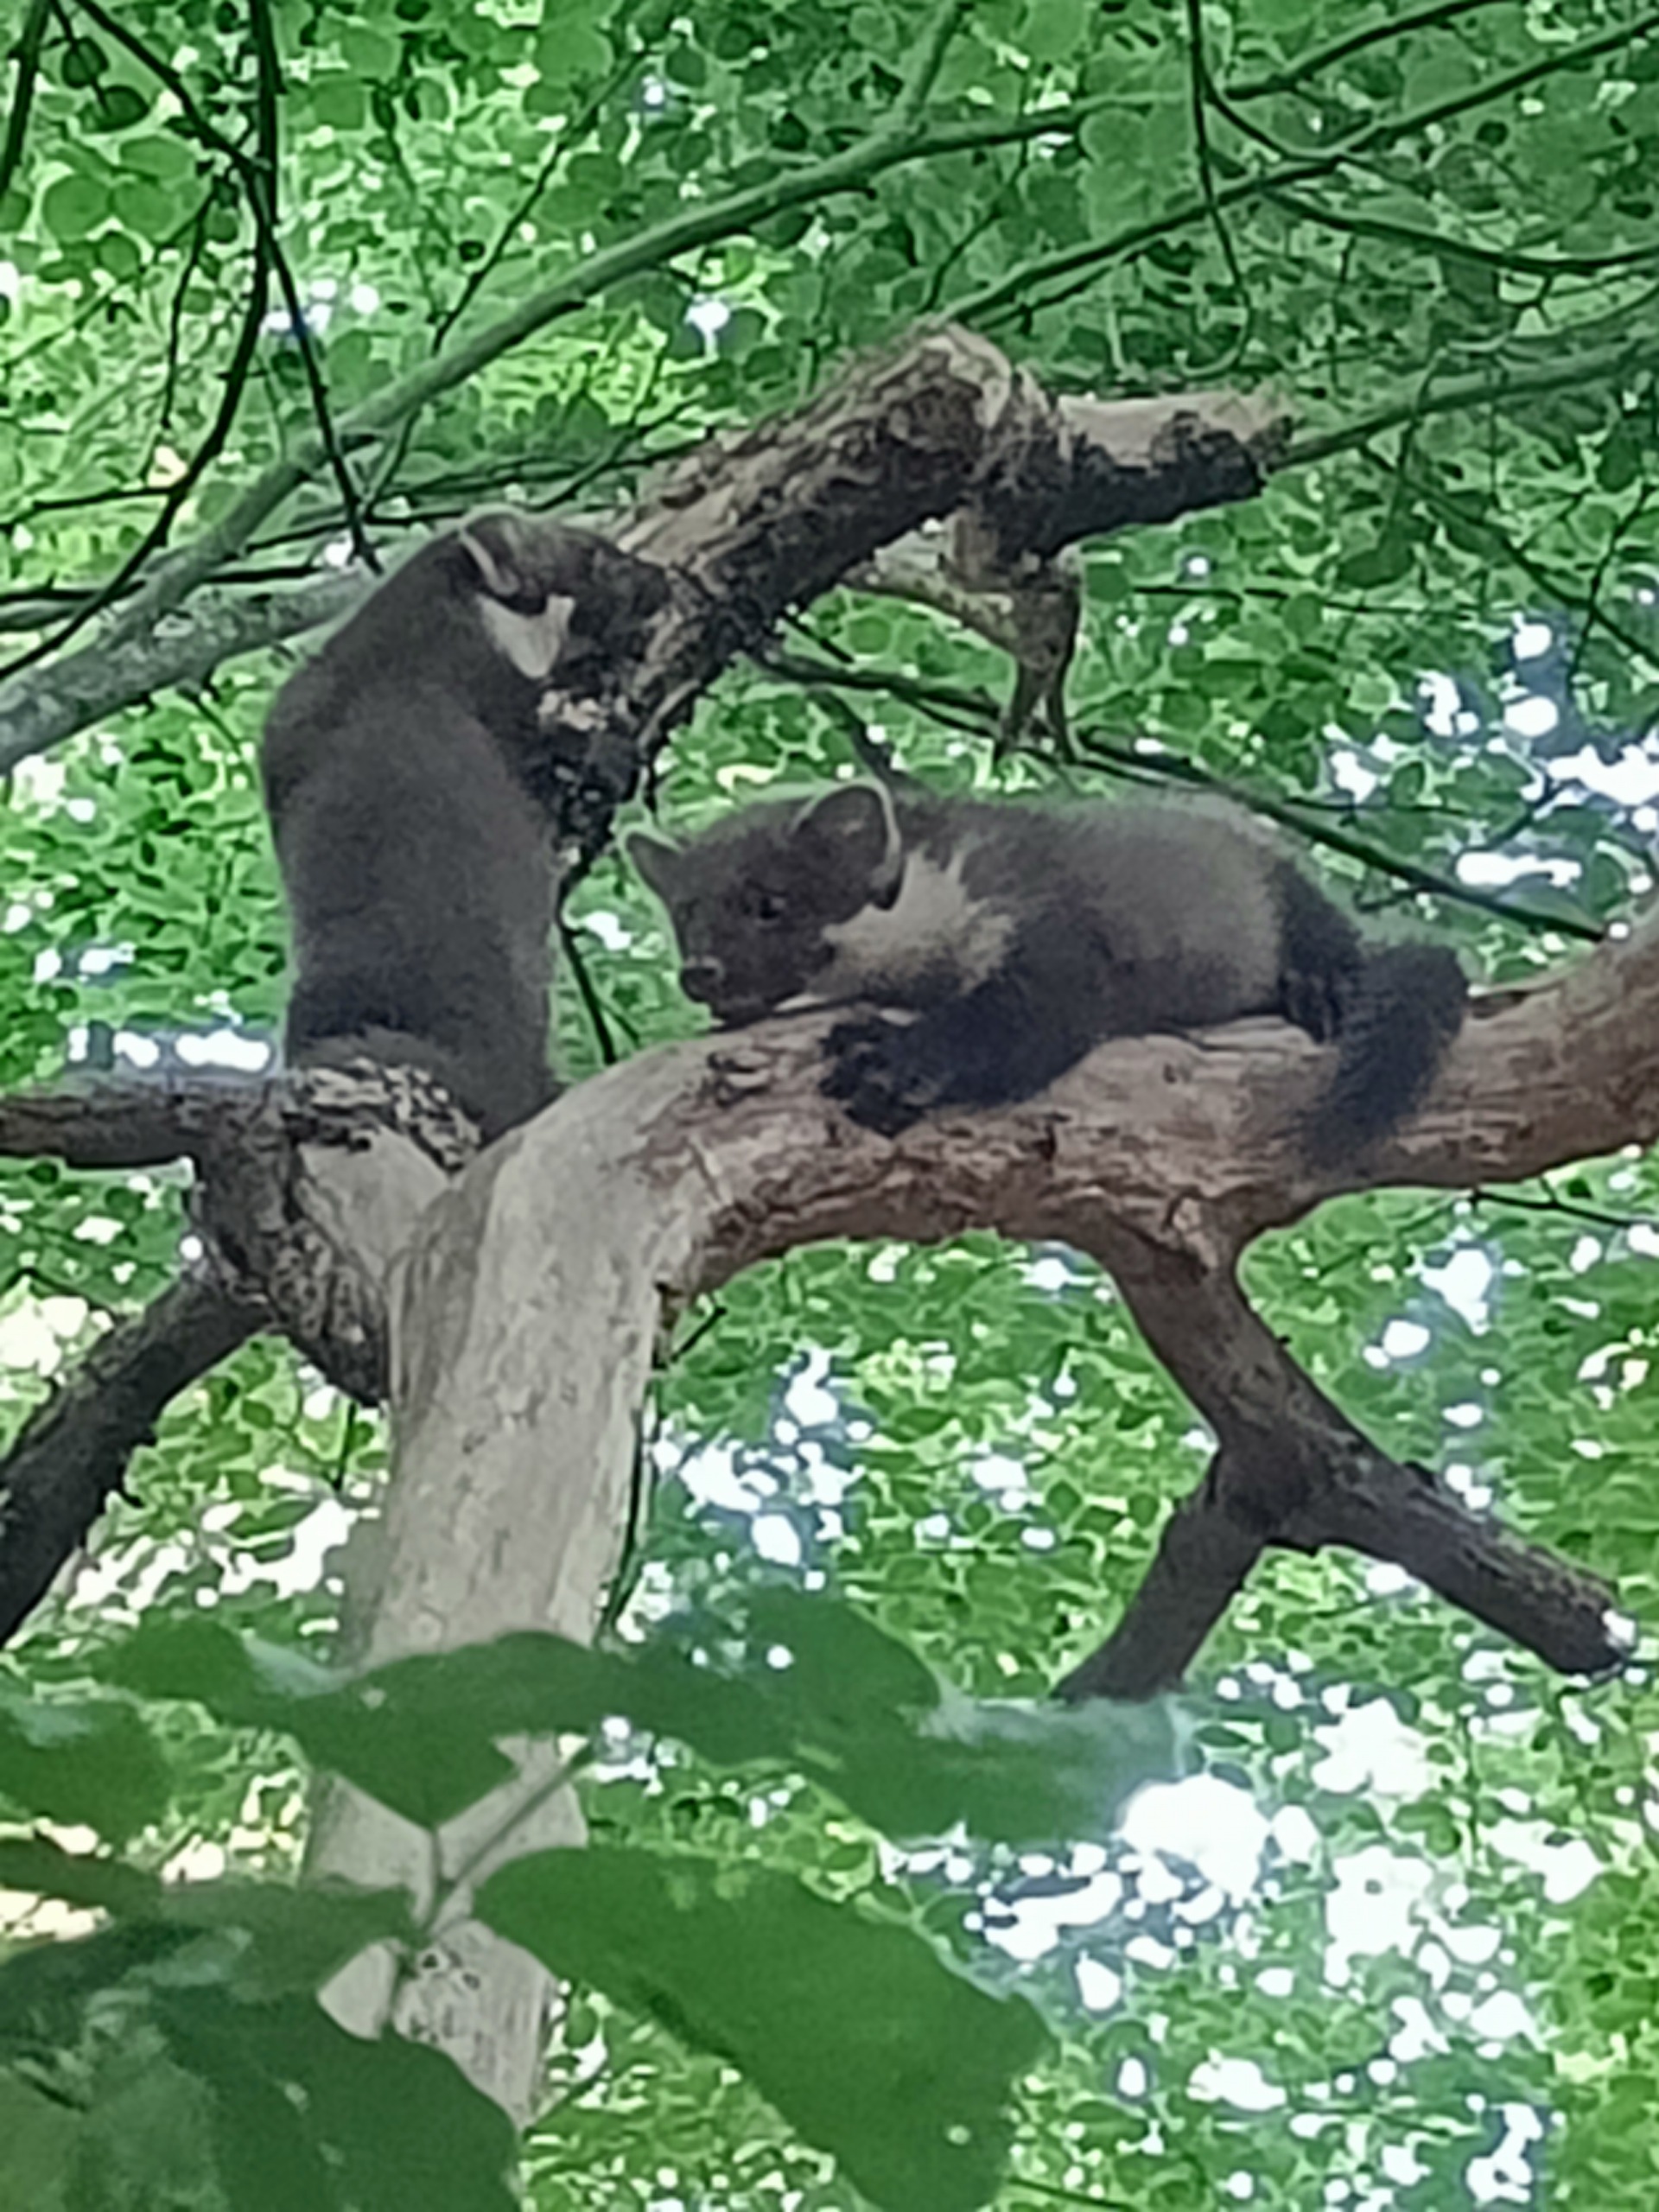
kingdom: Animalia
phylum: Chordata
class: Mammalia
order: Carnivora
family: Mustelidae
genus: Martes
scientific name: Martes martes
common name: Skovmår
